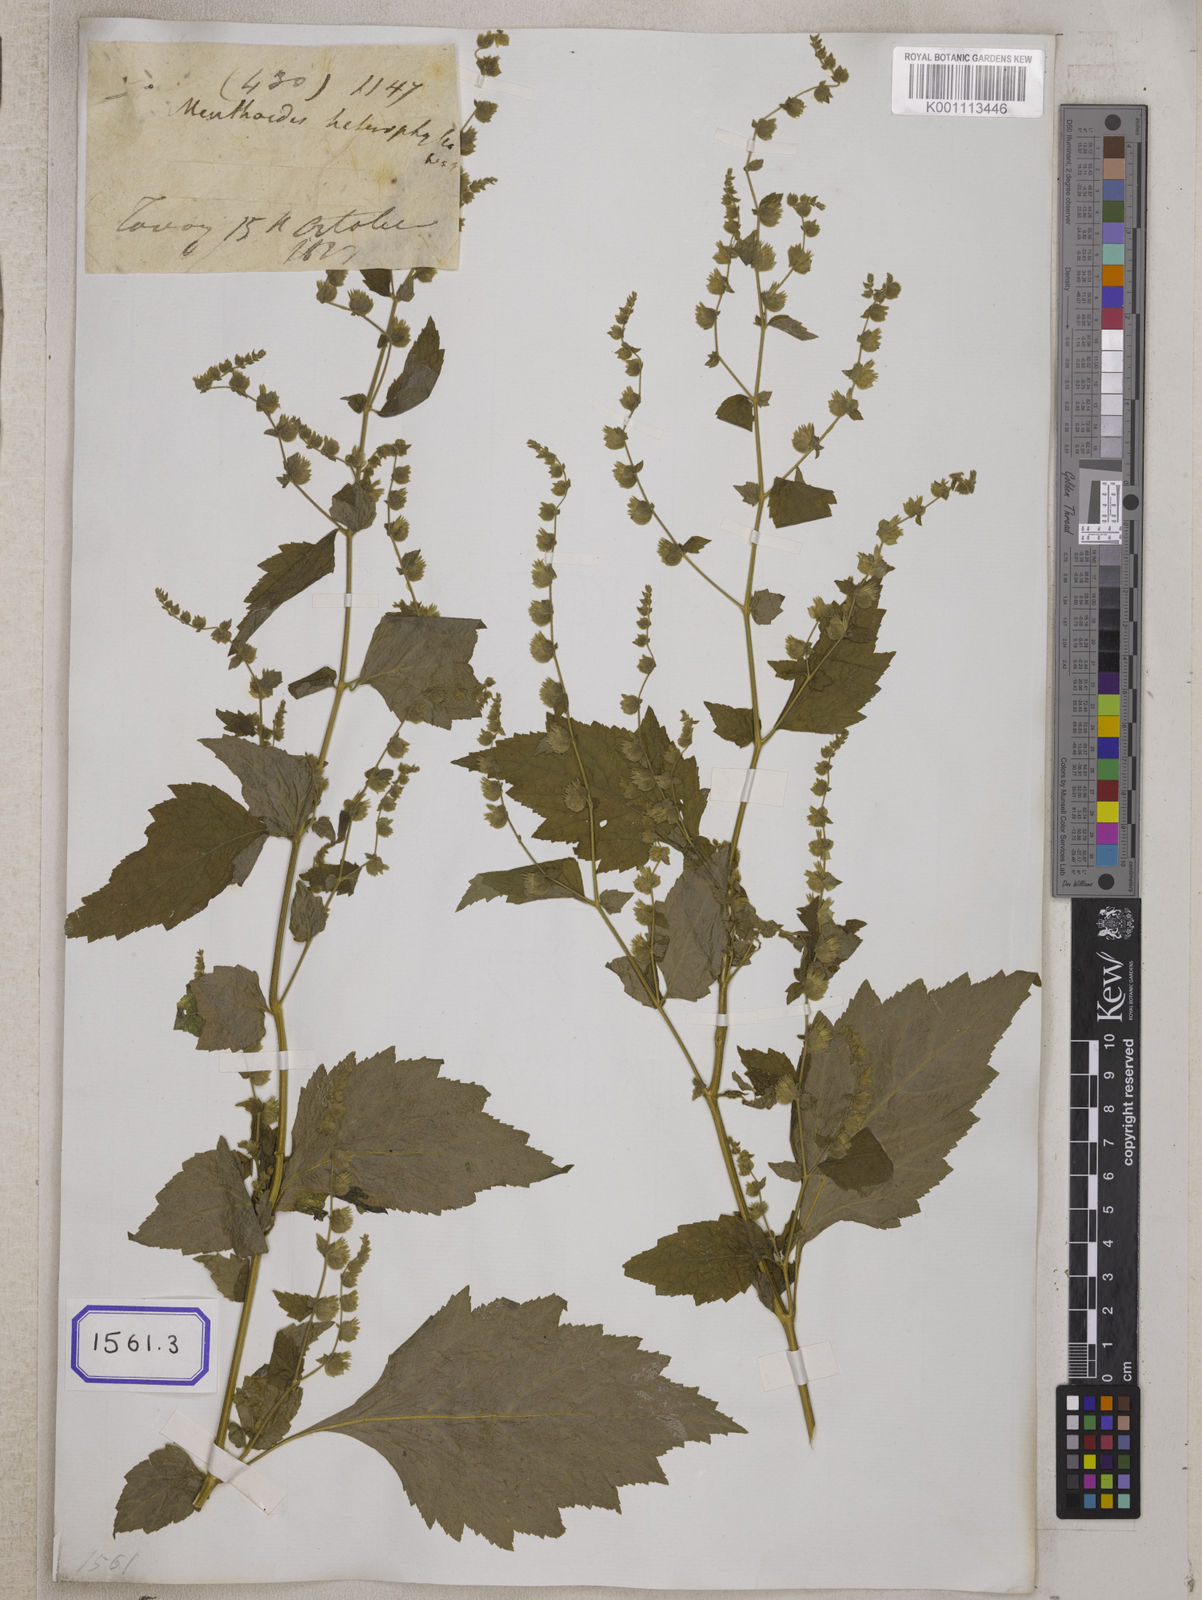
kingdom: Plantae
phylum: Tracheophyta
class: Magnoliopsida
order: Lamiales
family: Lamiaceae
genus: Pogostemon
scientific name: Pogostemon paniculatus
